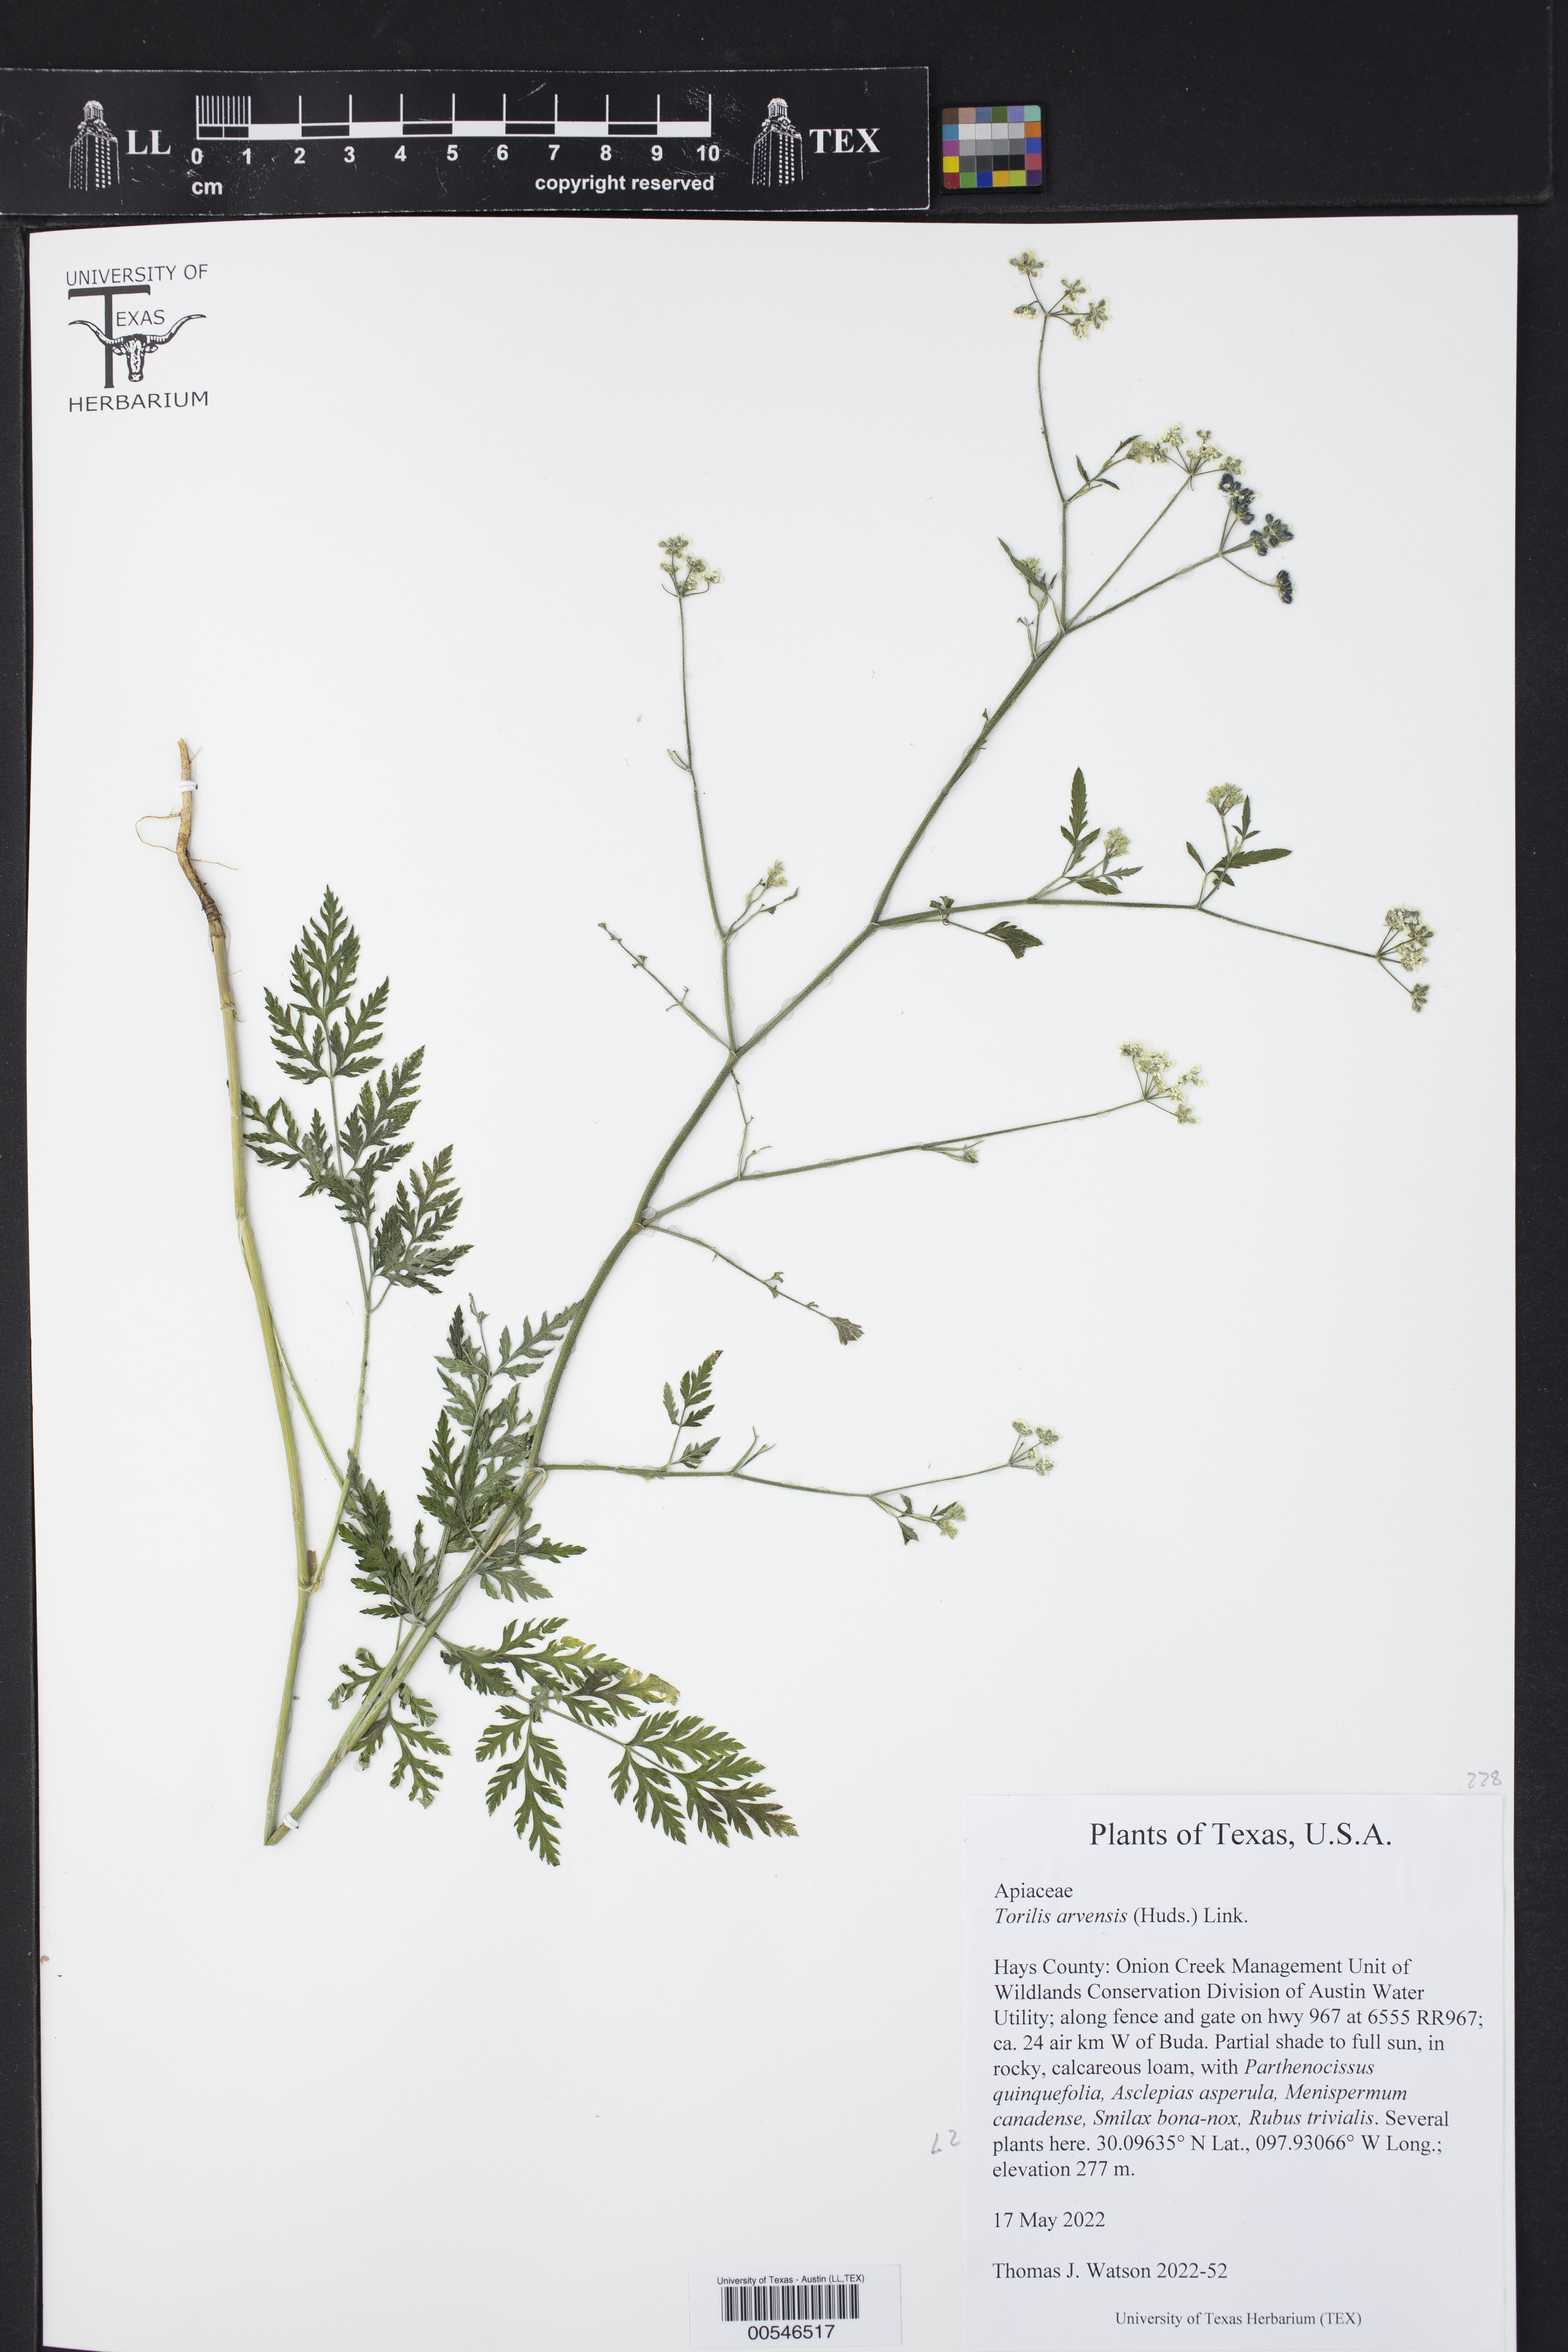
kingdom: Plantae
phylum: Tracheophyta
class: Magnoliopsida
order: Apiales
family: Apiaceae
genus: Torilis
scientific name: Torilis arvensis
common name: Spreading hedge-parsley
